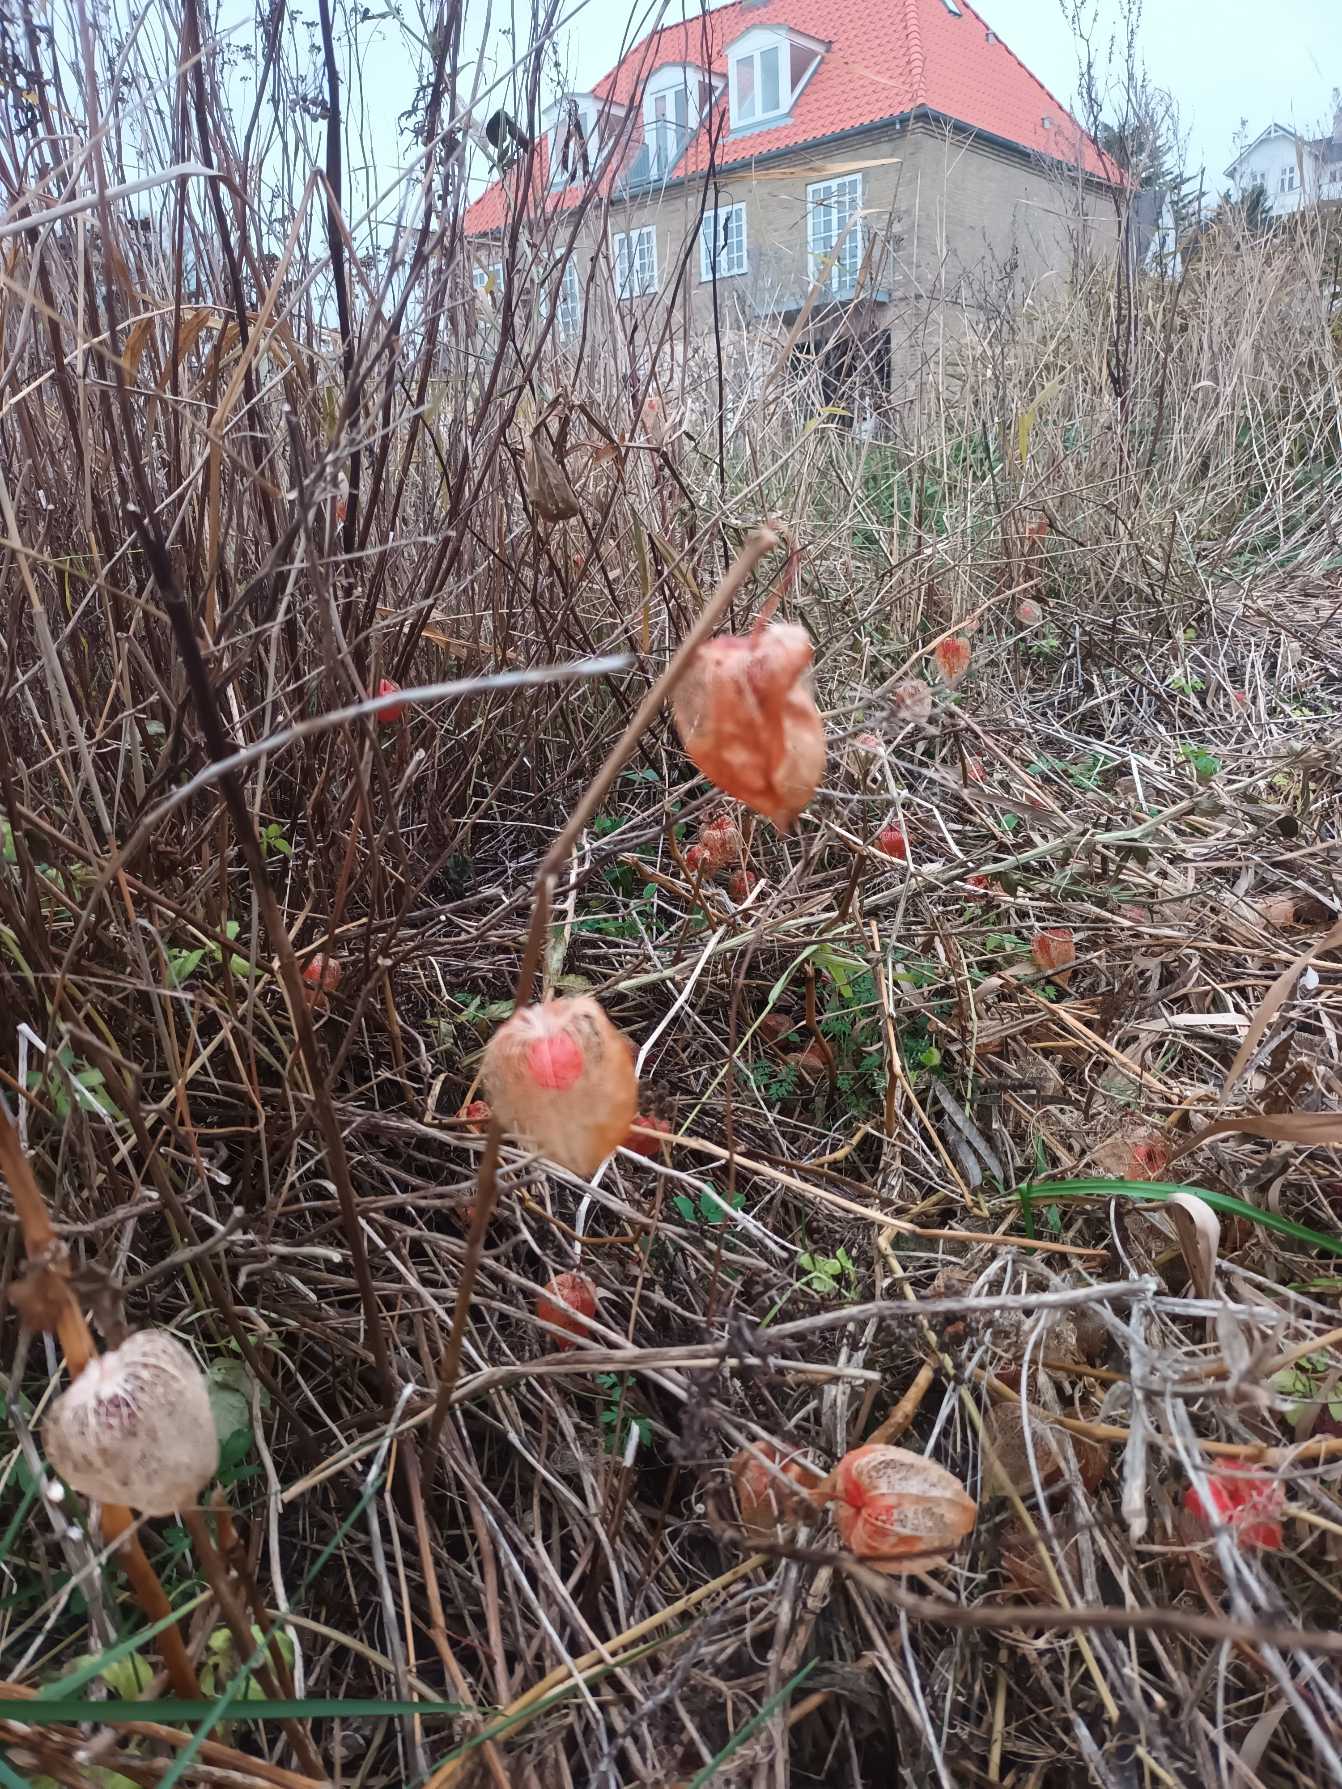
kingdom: Plantae
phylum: Tracheophyta
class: Magnoliopsida
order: Solanales
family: Solanaceae
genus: Alkekengi
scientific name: Alkekengi officinarum
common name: Jødekirsebær
